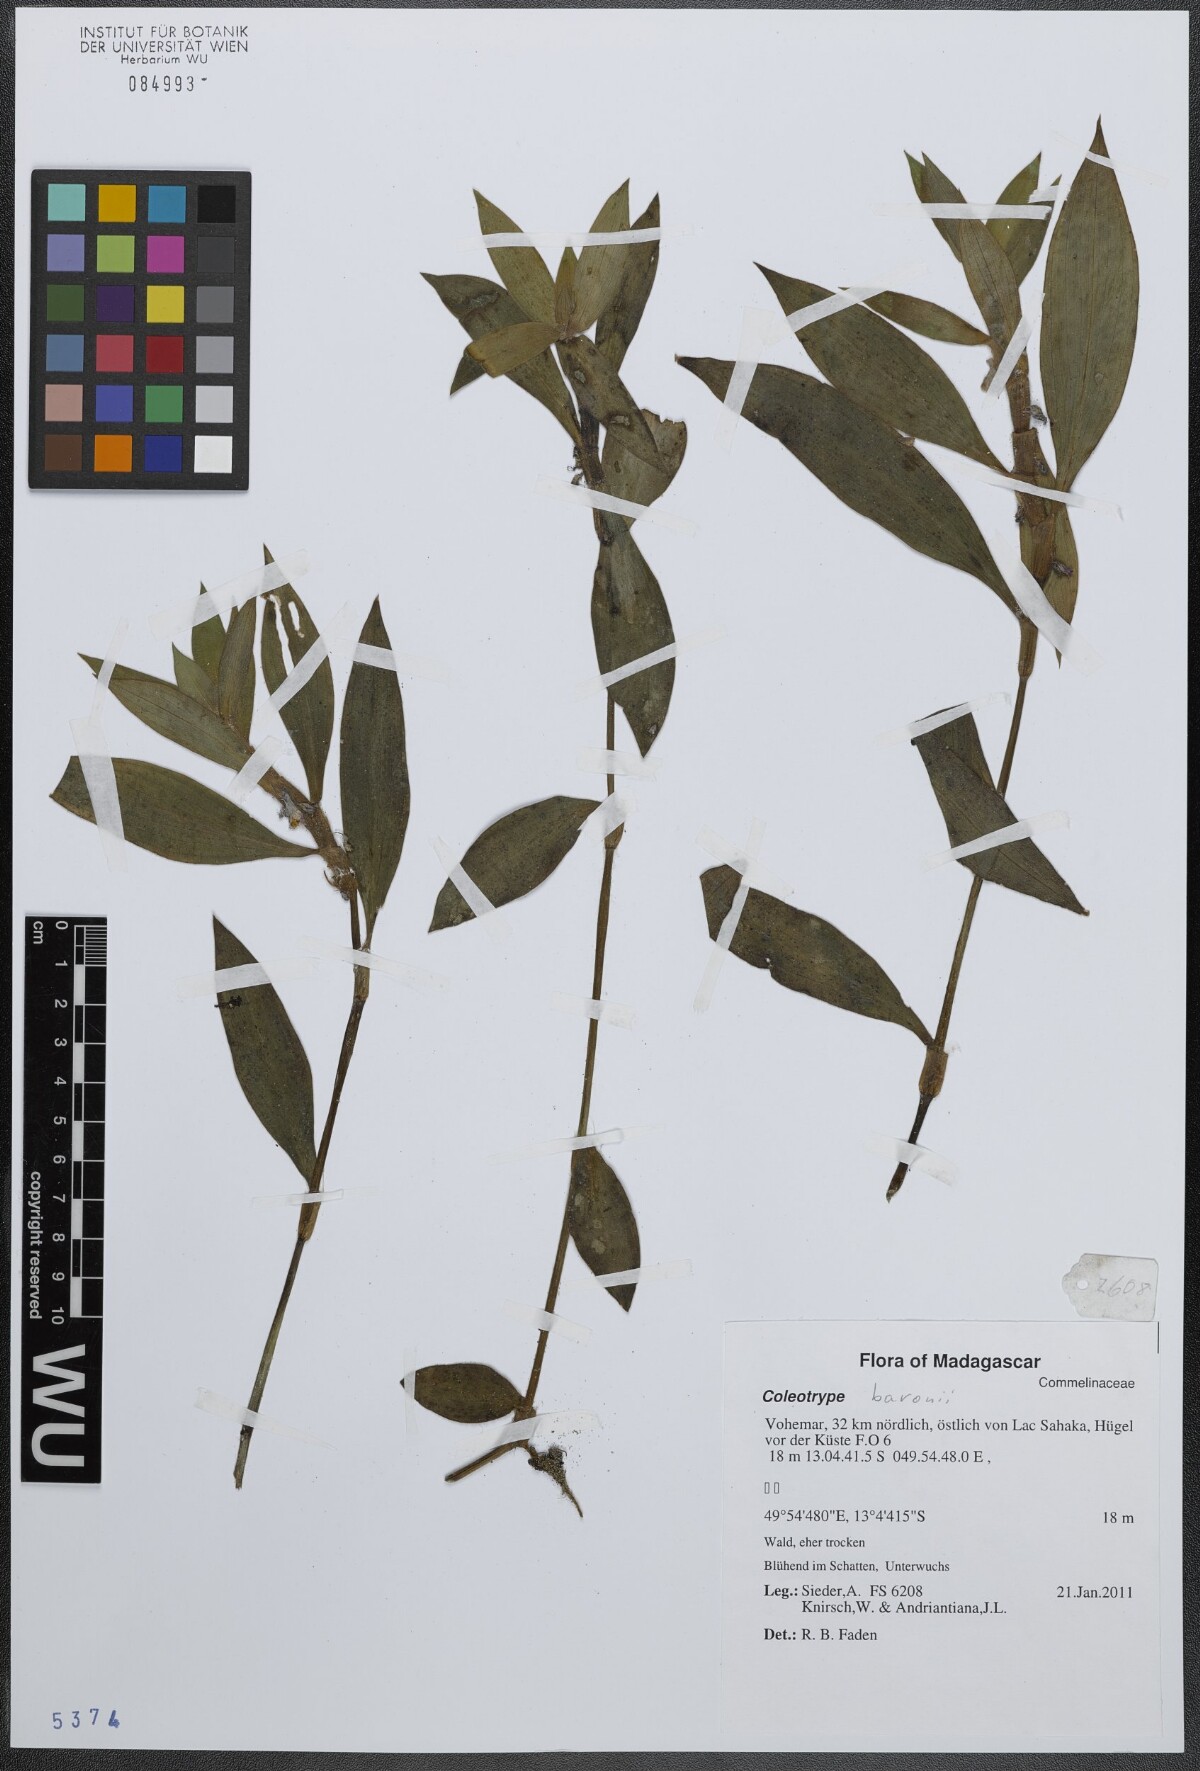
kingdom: Plantae
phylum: Tracheophyta
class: Liliopsida
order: Commelinales
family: Commelinaceae
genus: Coleotrype
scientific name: Coleotrype baronii
